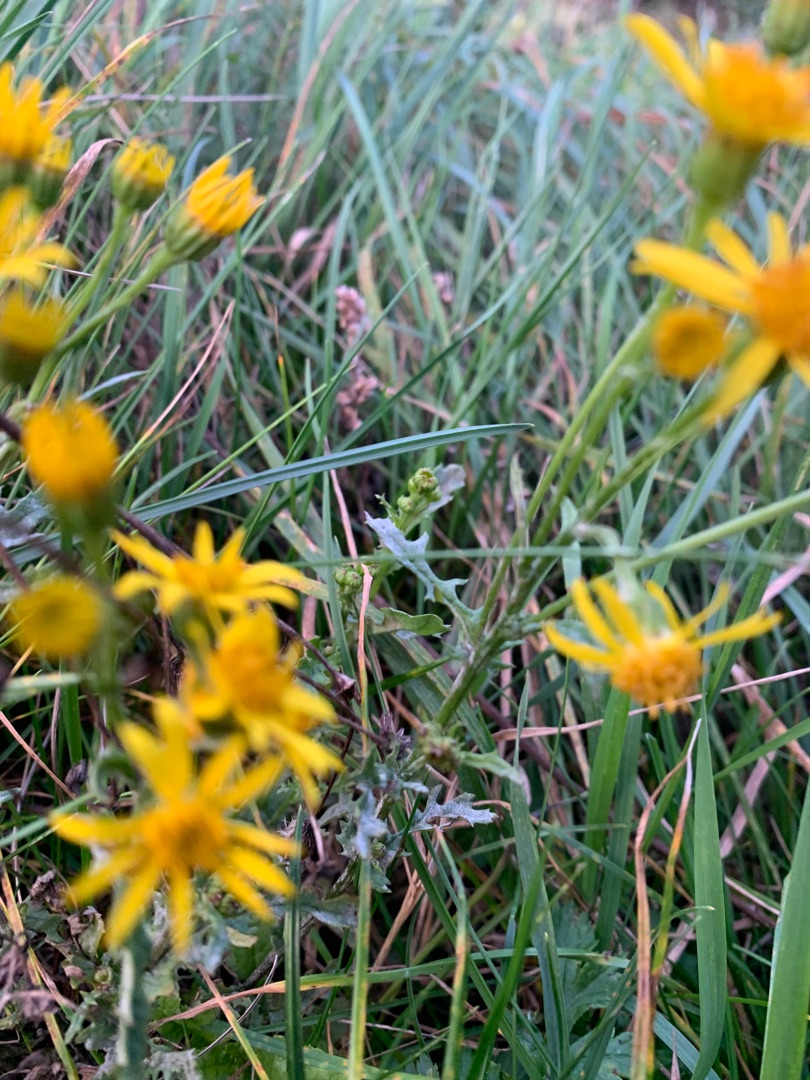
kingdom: Plantae
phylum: Tracheophyta
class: Magnoliopsida
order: Asterales
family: Asteraceae
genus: Jacobaea
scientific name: Jacobaea vulgaris
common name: Eng-brandbæger
